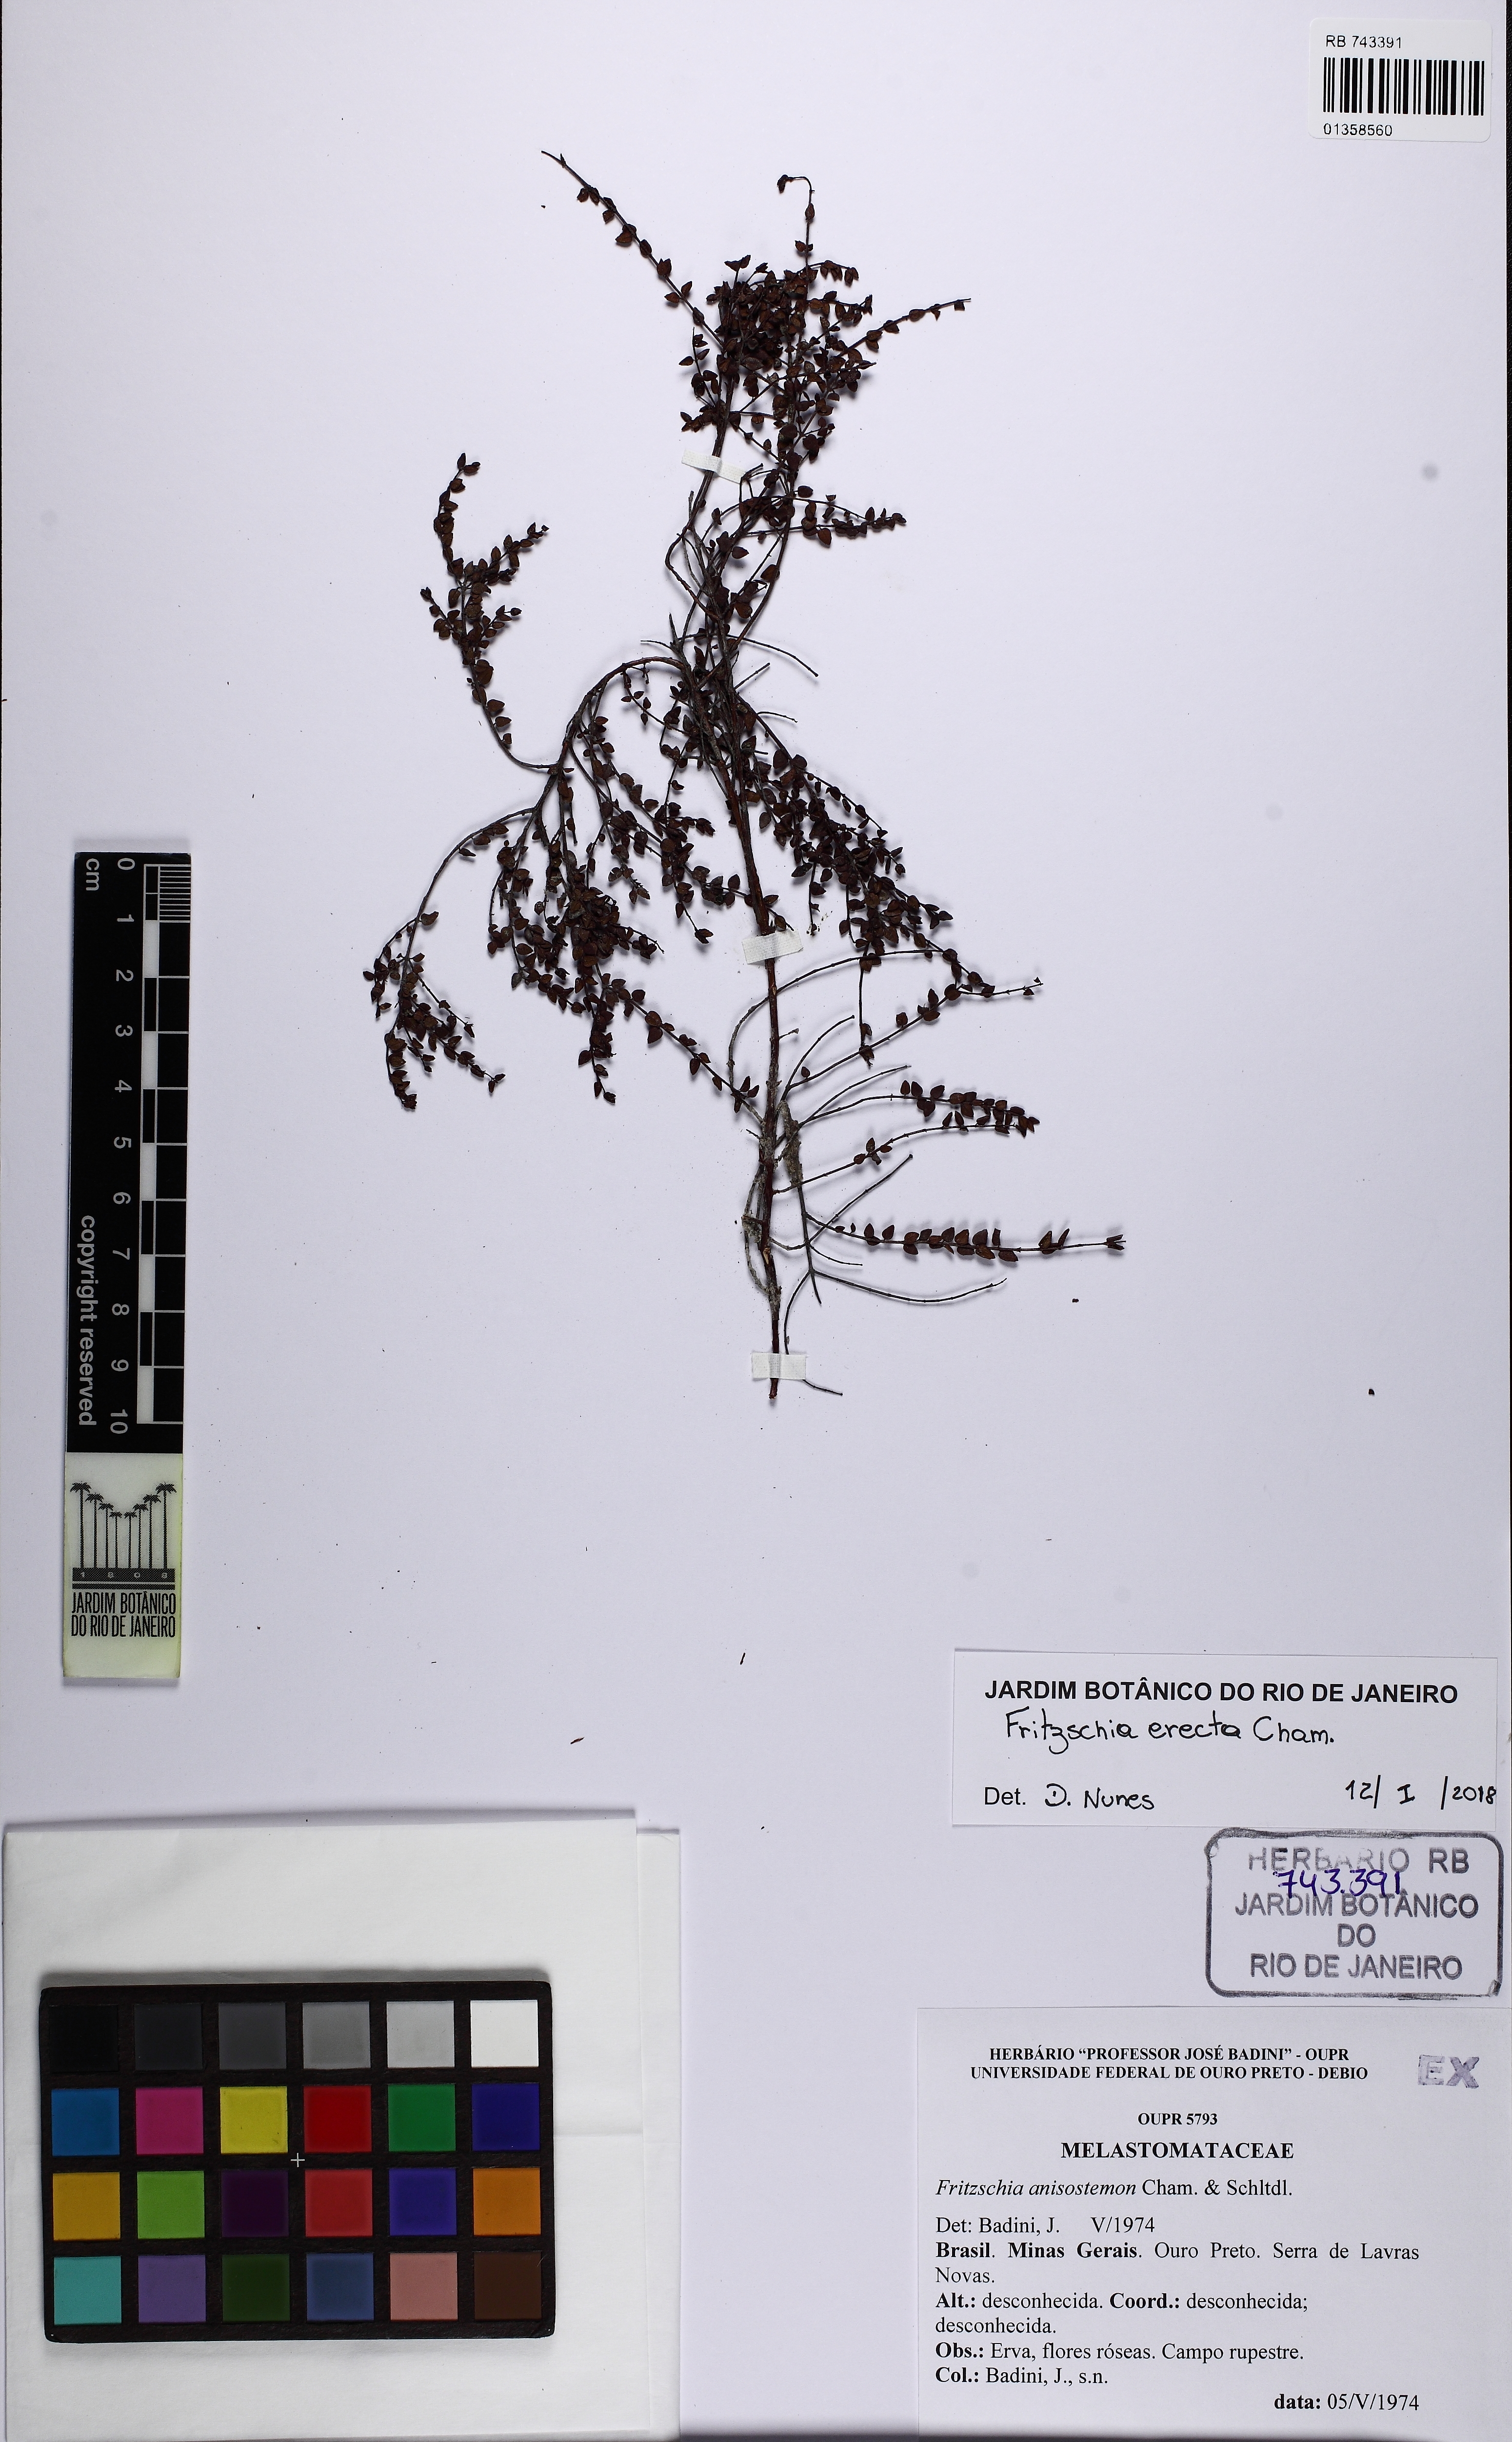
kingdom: Plantae
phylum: Tracheophyta
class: Magnoliopsida
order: Myrtales
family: Melastomataceae
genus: Fritzschia
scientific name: Fritzschia erecta
